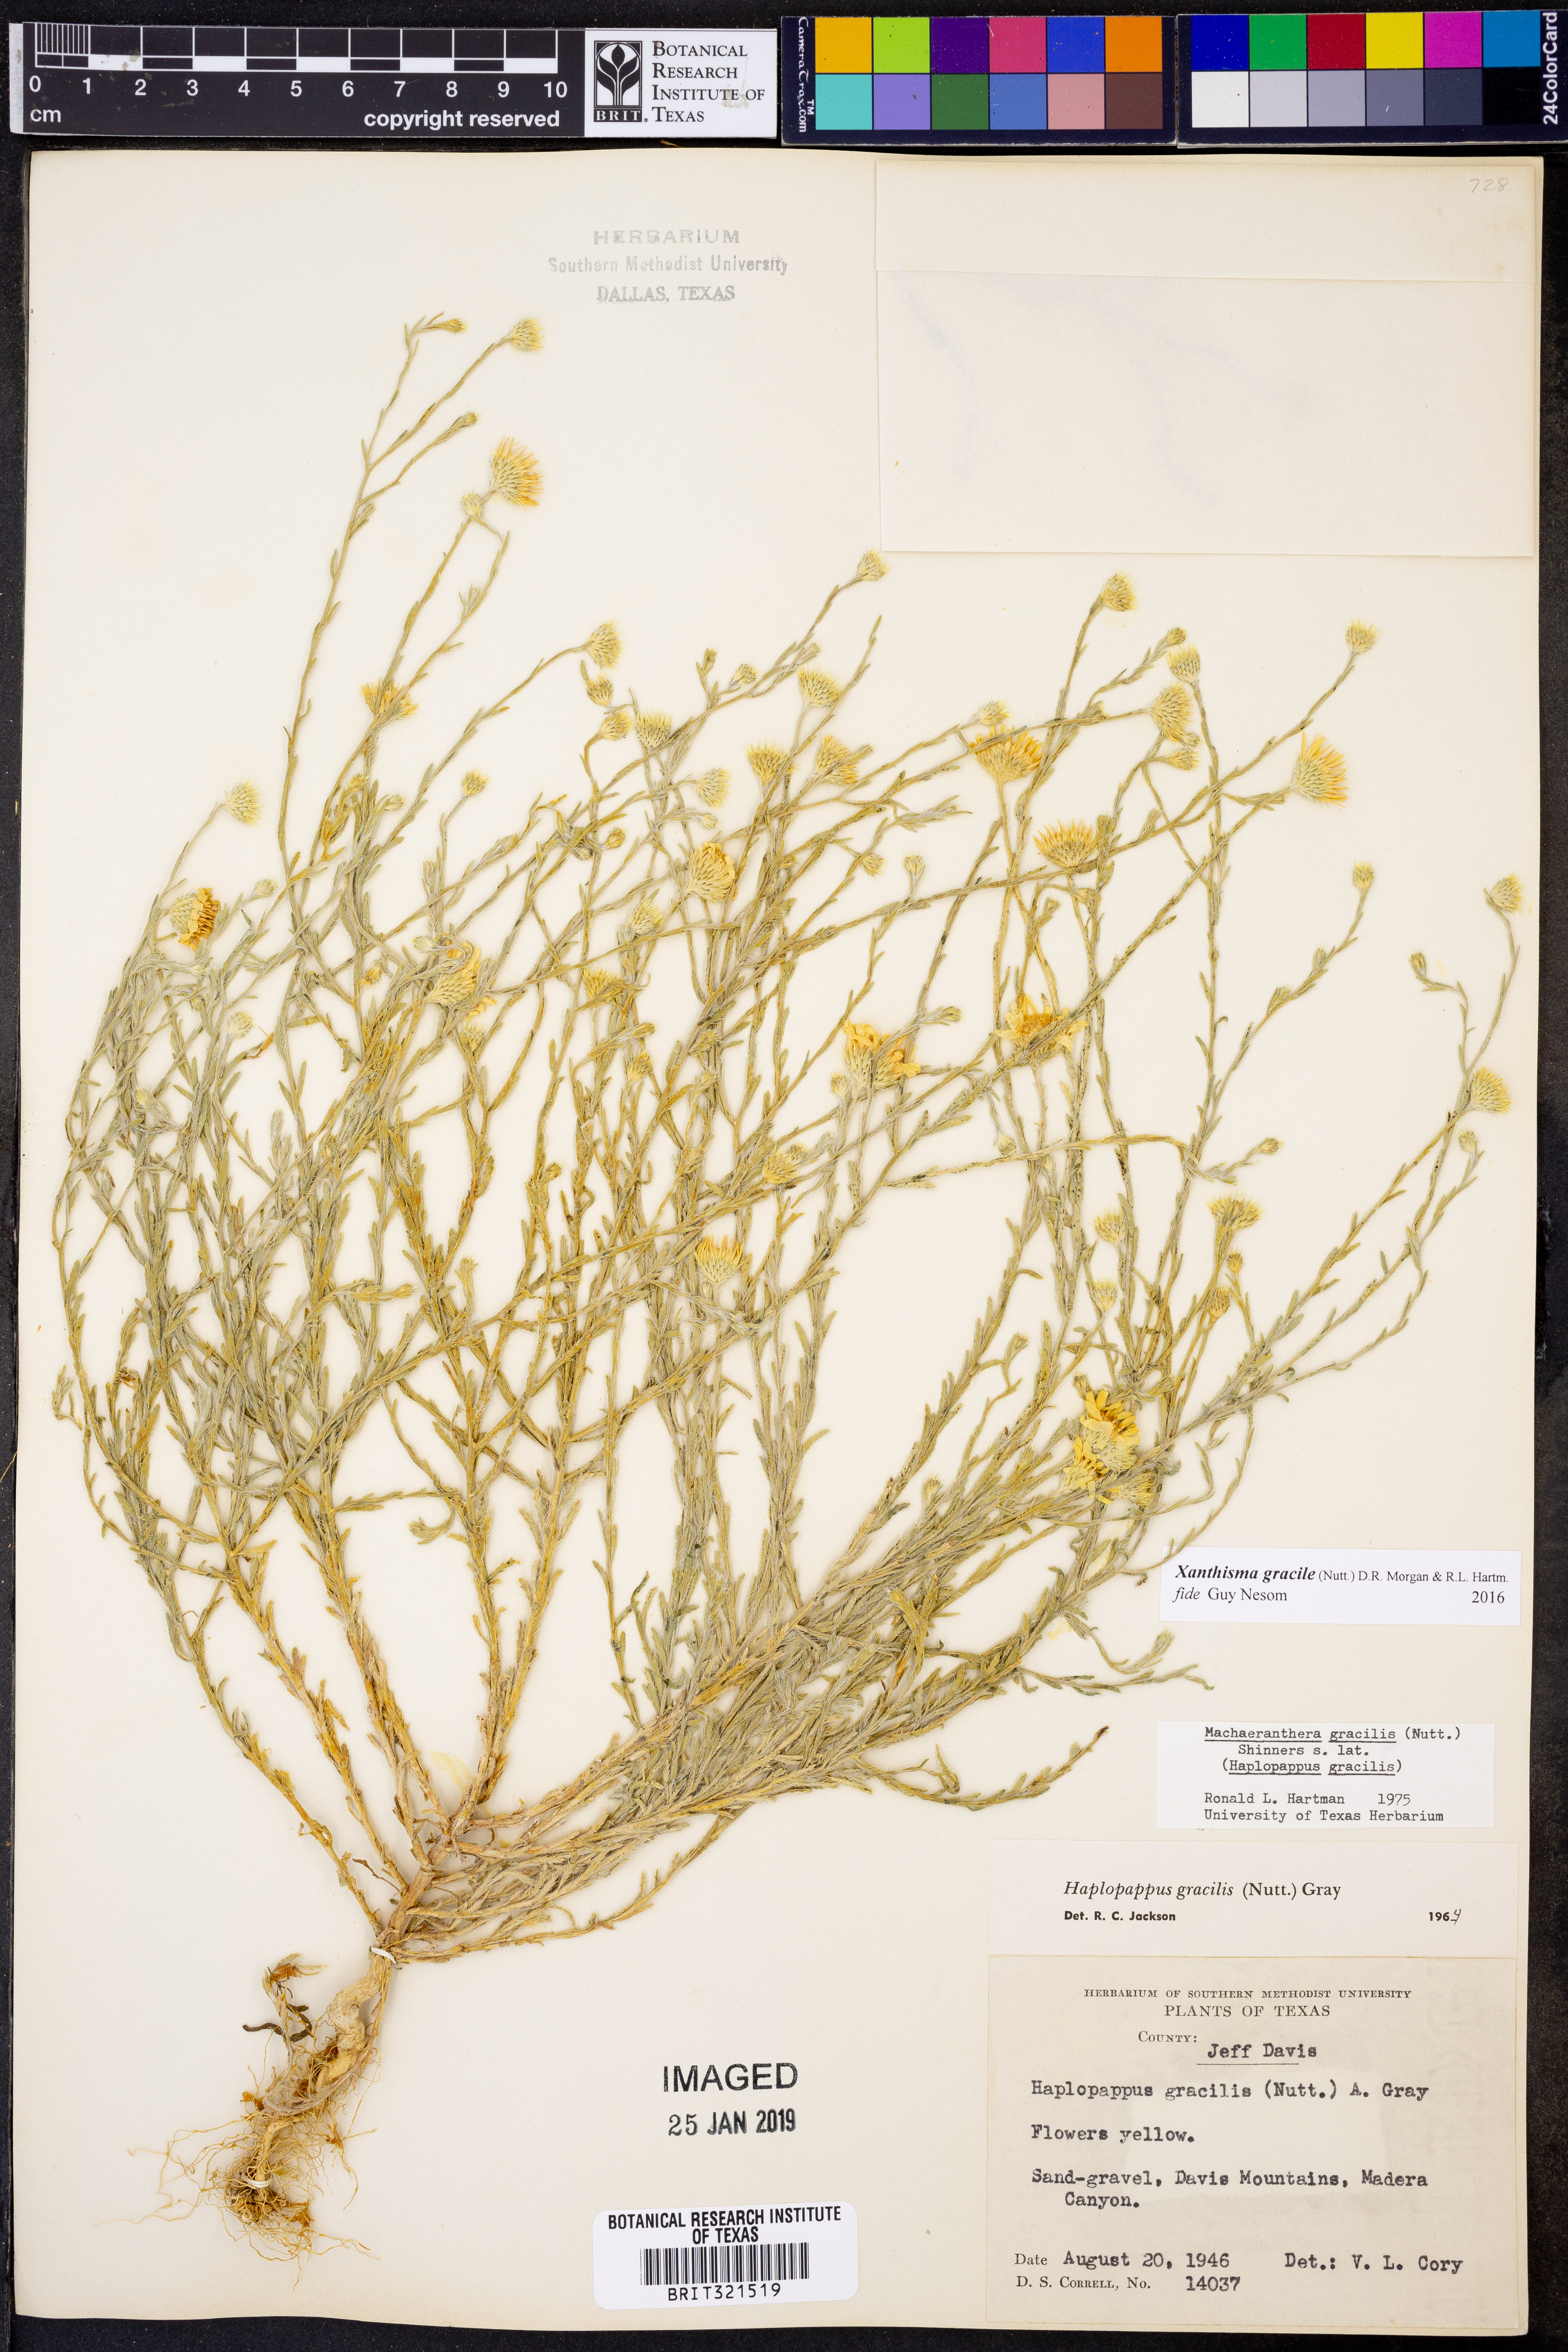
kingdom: Plantae
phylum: Tracheophyta
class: Magnoliopsida
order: Asterales
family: Asteraceae
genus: Xanthisma
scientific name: Xanthisma gracile
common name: Slender goldenweed
